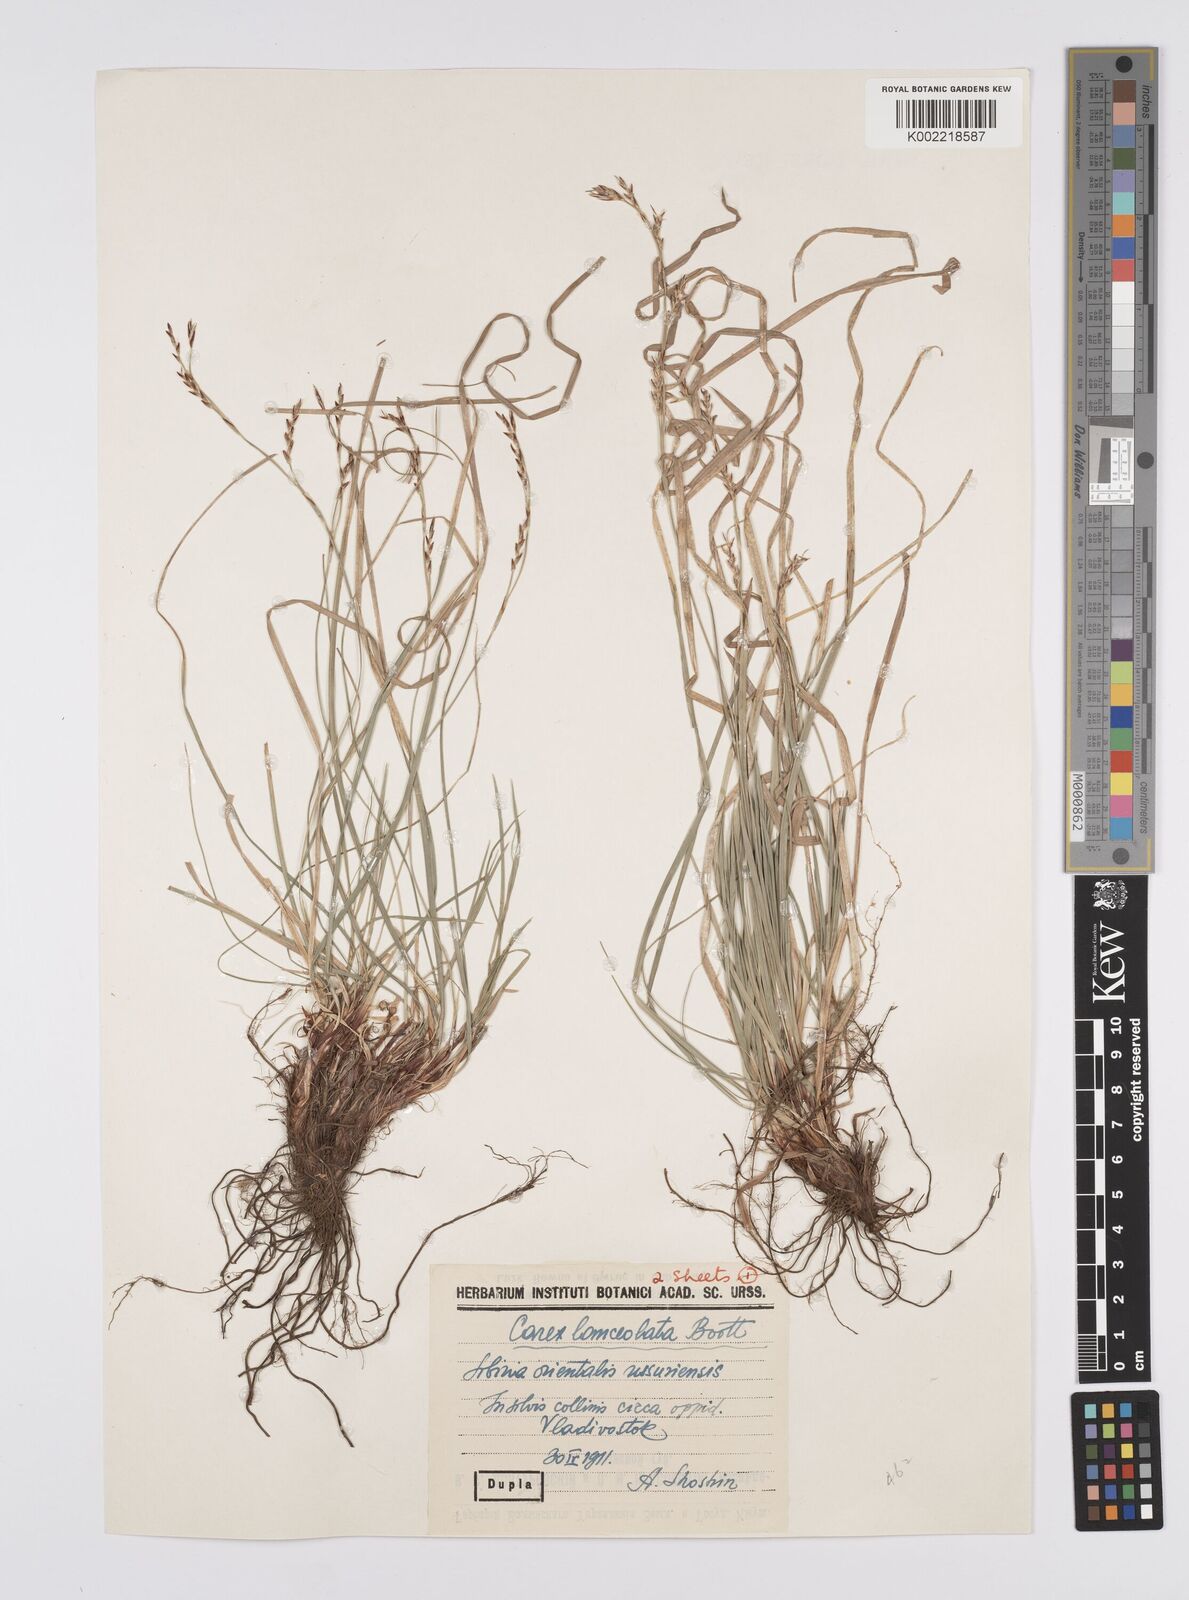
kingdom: Plantae
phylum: Tracheophyta
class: Liliopsida
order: Poales
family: Cyperaceae
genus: Carex
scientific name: Carex lanceolata
